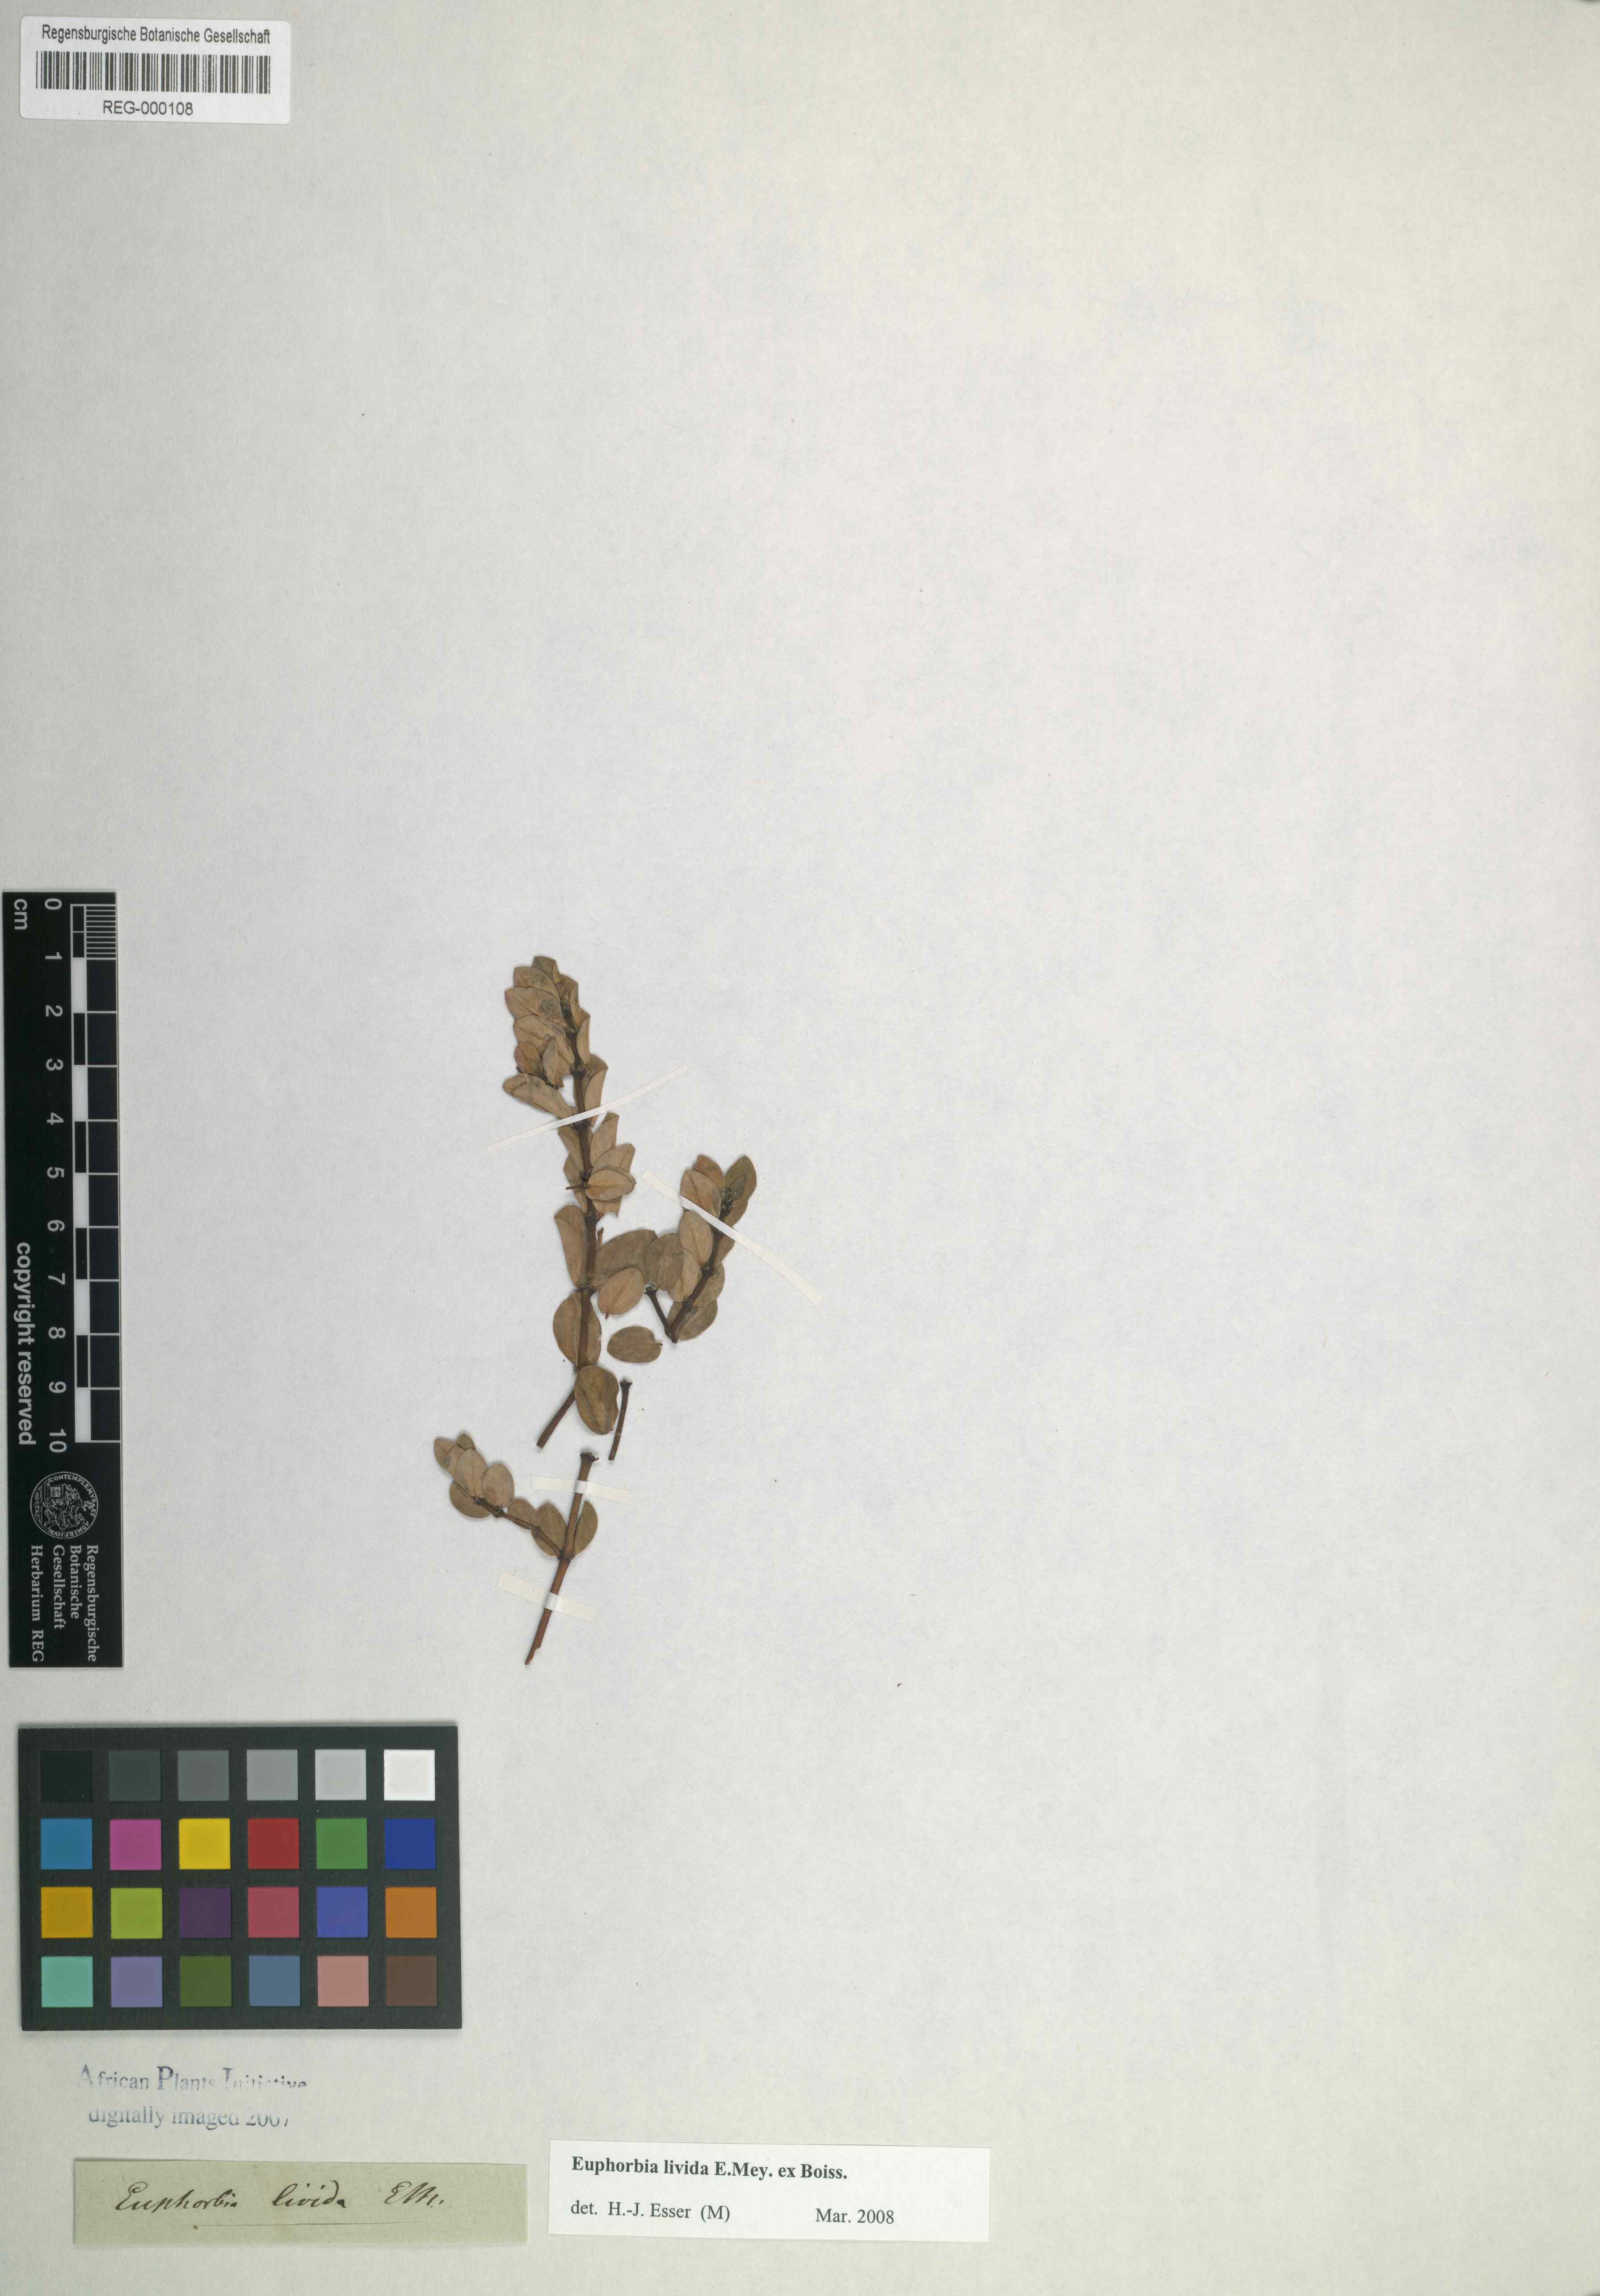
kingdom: Plantae
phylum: Tracheophyta
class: Magnoliopsida
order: Malpighiales
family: Euphorbiaceae
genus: Euphorbia
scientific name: Euphorbia livida
